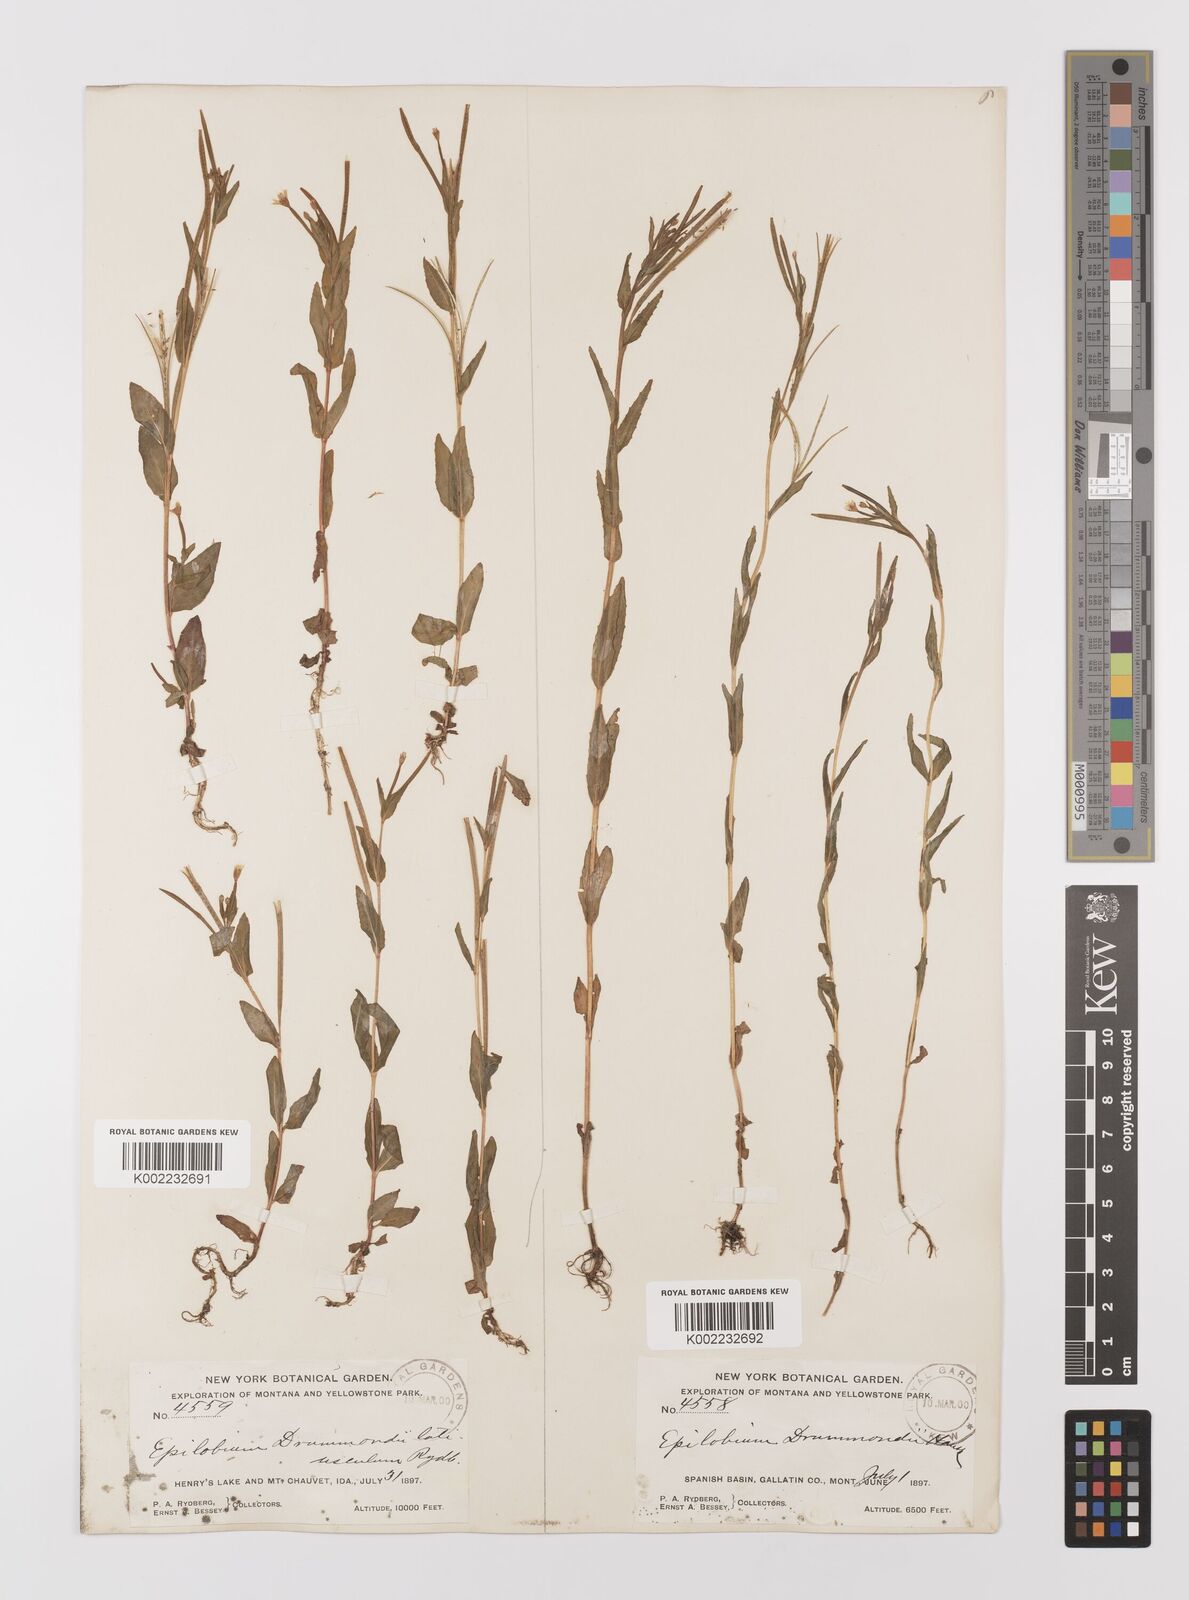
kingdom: Plantae
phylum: Tracheophyta
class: Magnoliopsida
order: Myrtales
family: Onagraceae
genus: Epilobium
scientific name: Epilobium
